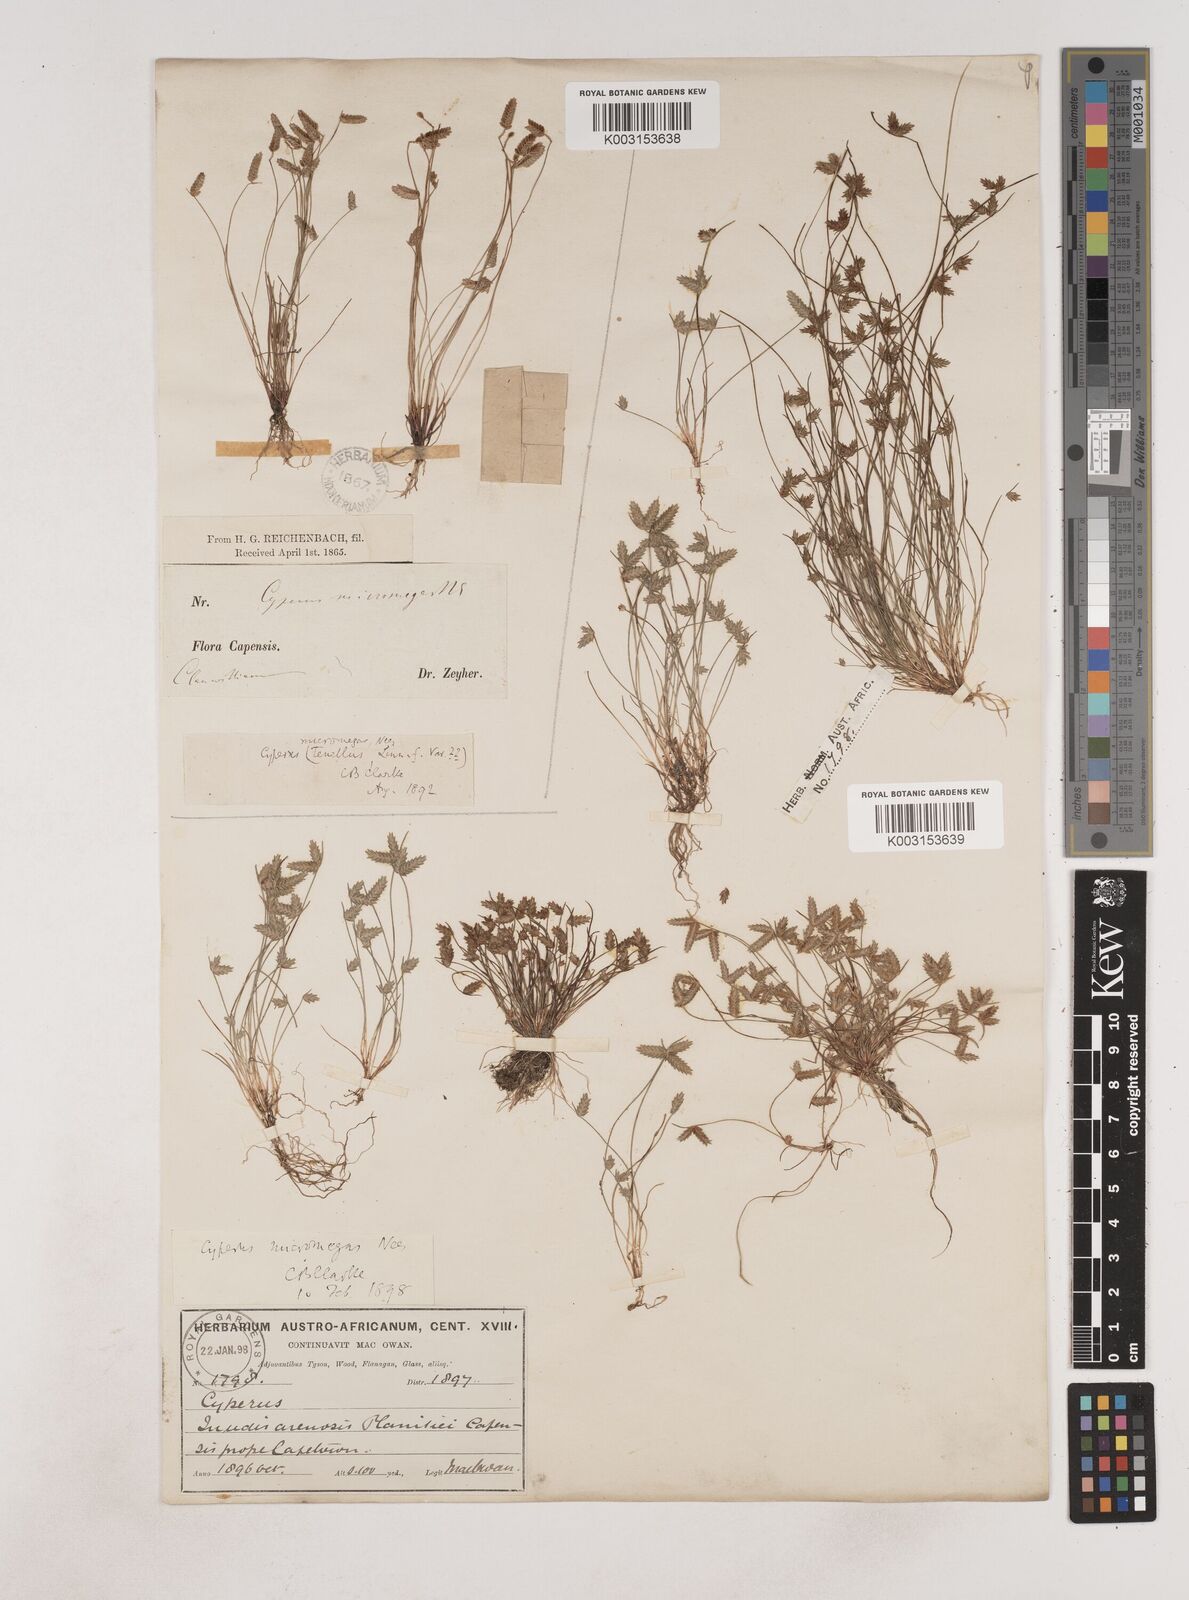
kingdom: Plantae
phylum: Tracheophyta
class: Liliopsida
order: Poales
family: Cyperaceae
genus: Isolepis
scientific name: Isolepis levynsiana
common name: Sedge
